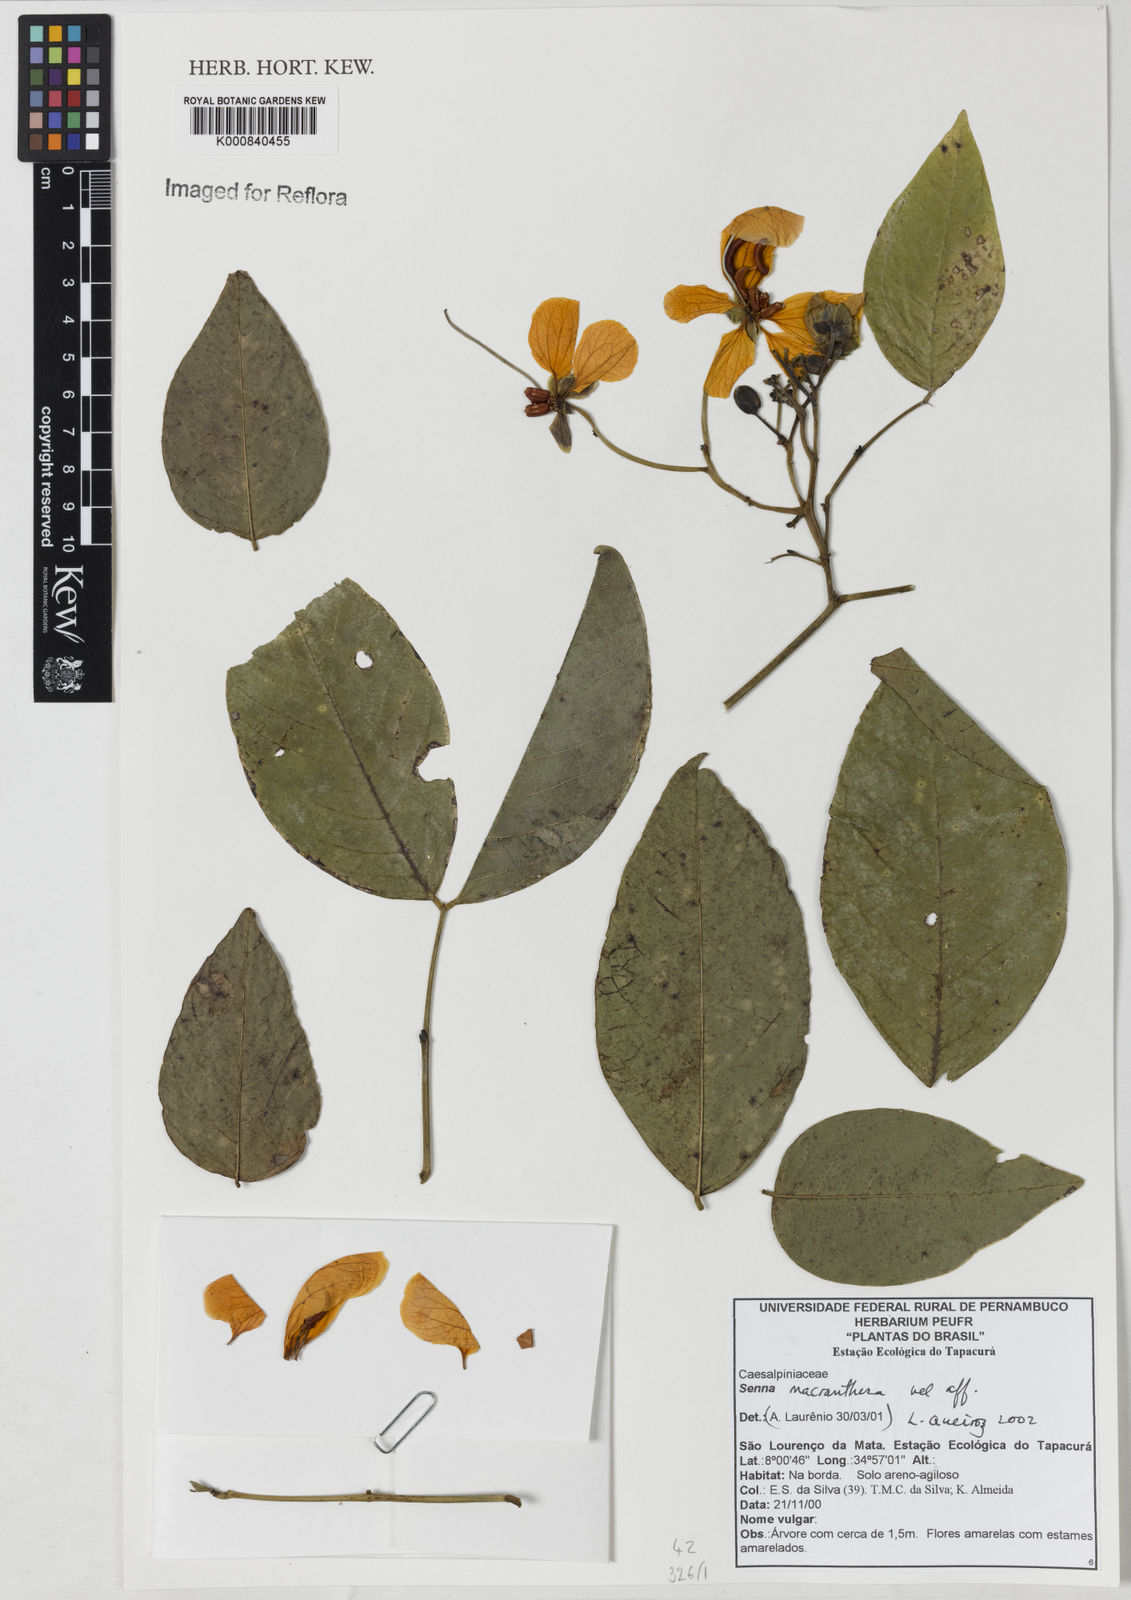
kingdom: Plantae
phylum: Tracheophyta
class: Magnoliopsida
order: Fabales
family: Fabaceae
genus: Senna
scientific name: Senna georgica
